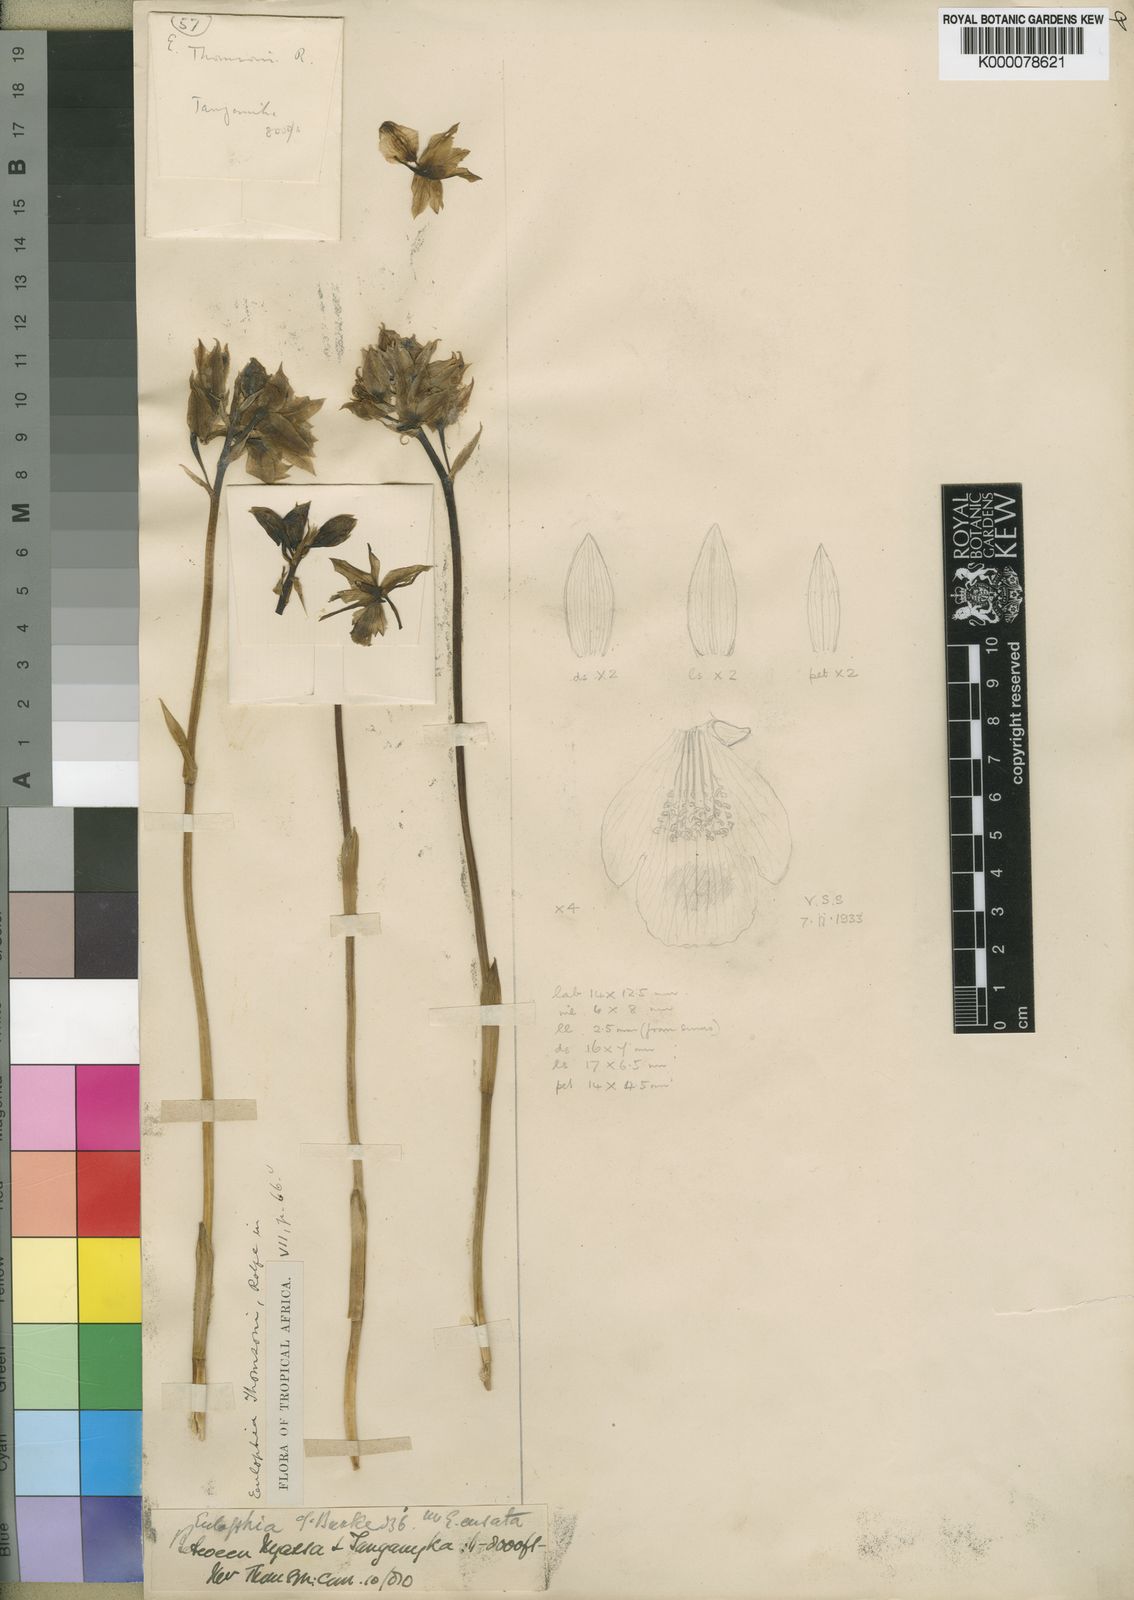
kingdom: Plantae
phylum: Tracheophyta
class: Liliopsida
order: Asparagales
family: Orchidaceae
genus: Eulophia
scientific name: Eulophia thomsonii
